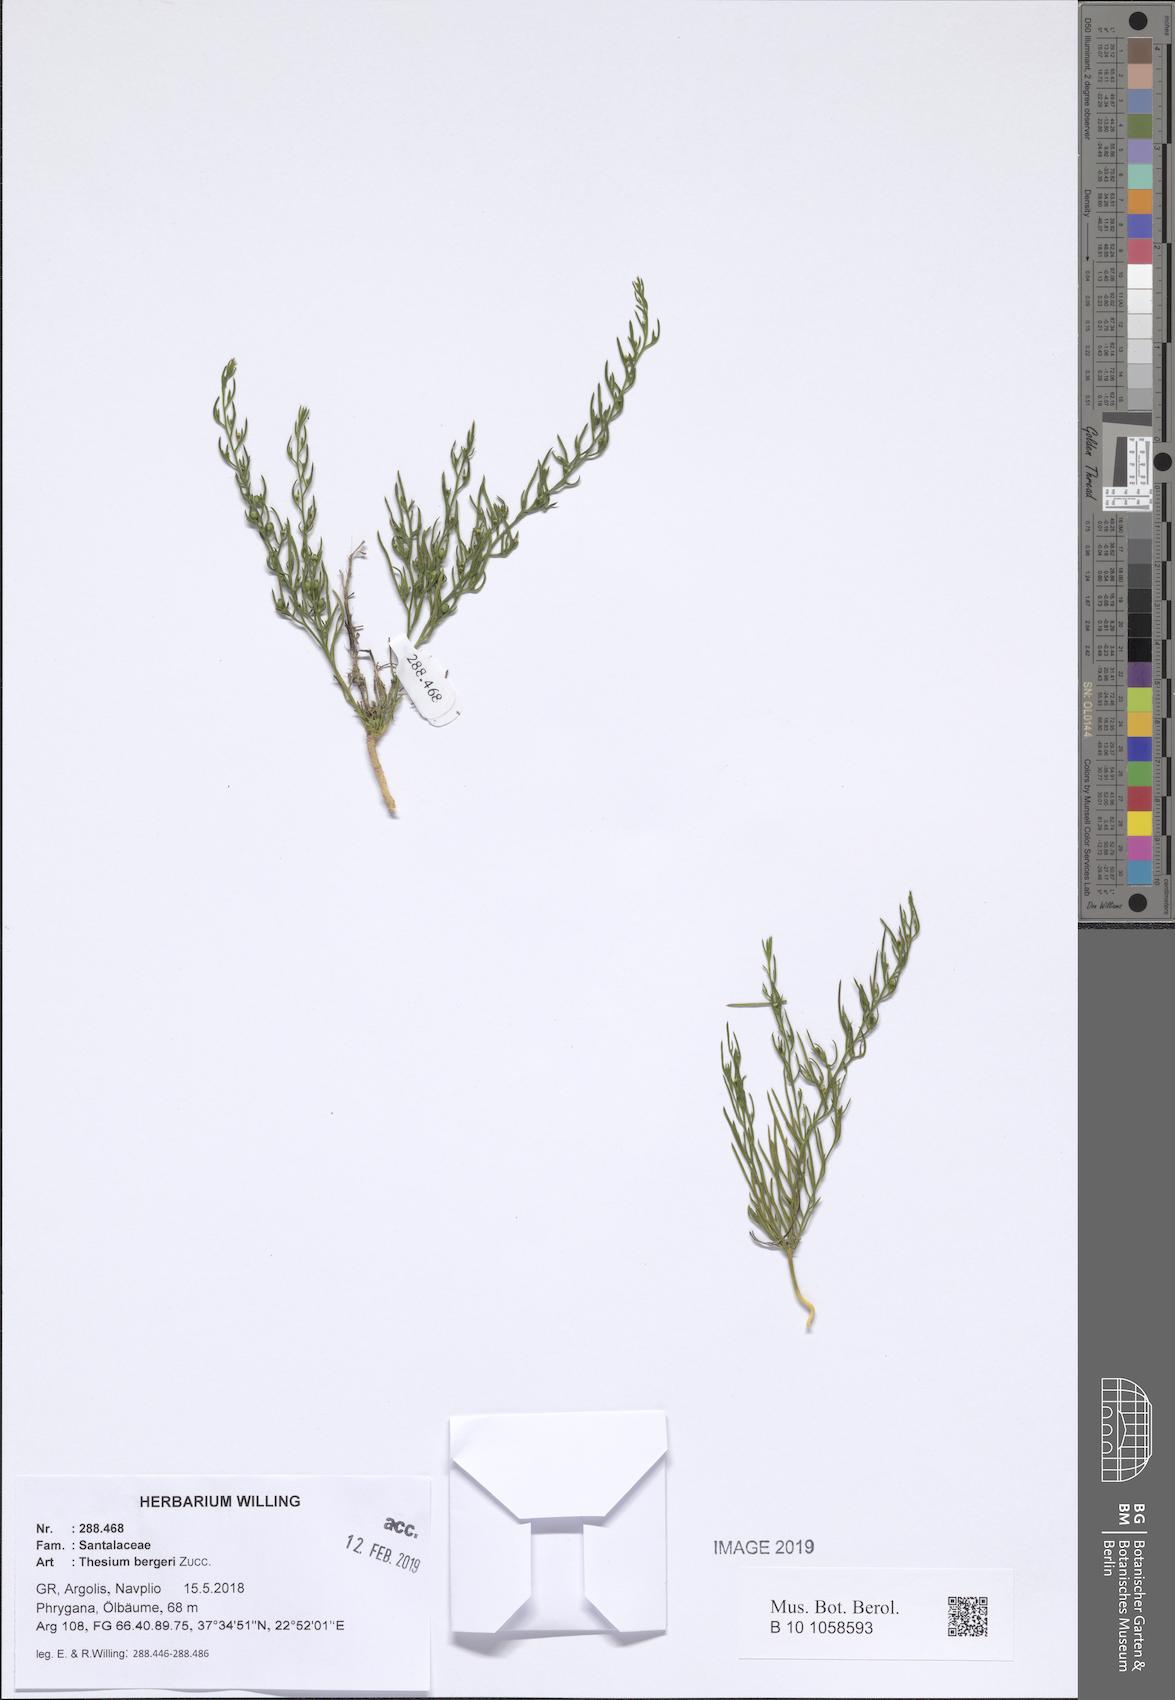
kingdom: Plantae
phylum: Tracheophyta
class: Magnoliopsida
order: Santalales
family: Thesiaceae
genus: Thesium
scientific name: Thesium bergeri
